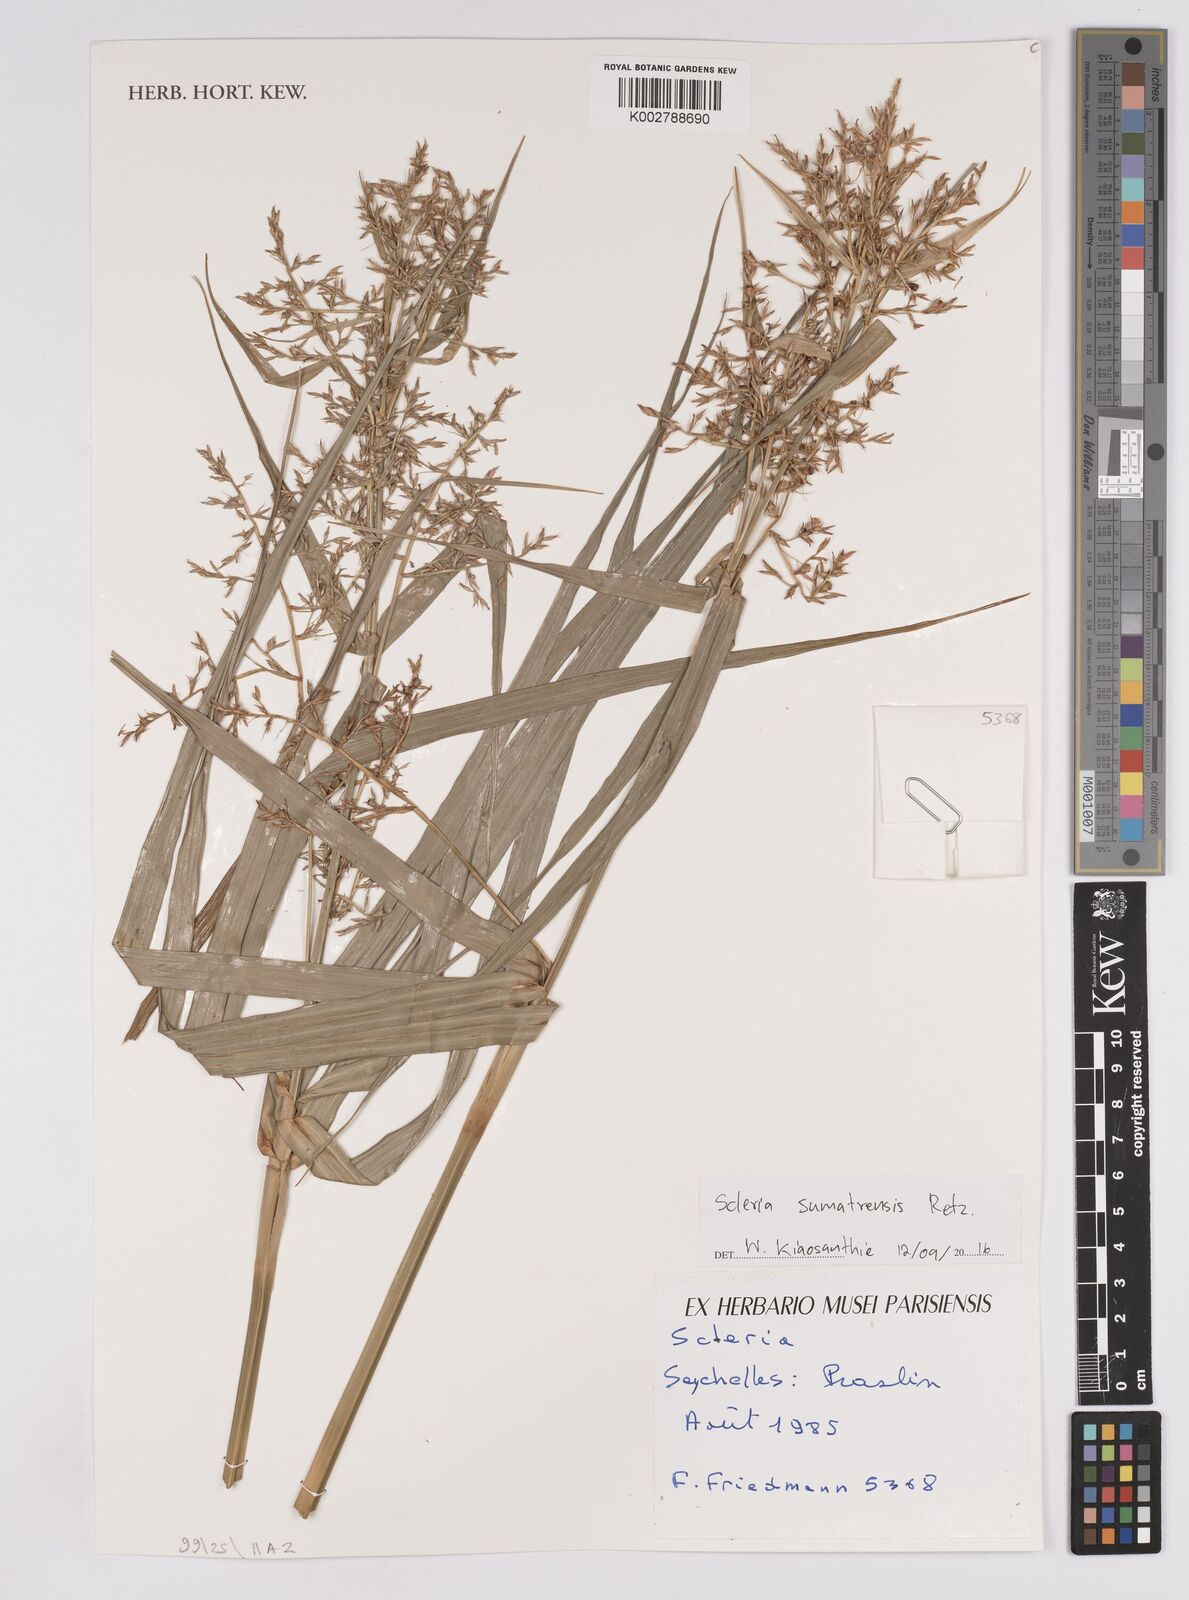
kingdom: Plantae
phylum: Tracheophyta
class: Liliopsida
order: Poales
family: Cyperaceae
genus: Scleria
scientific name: Scleria sumatrensis
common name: Sumatran scleria
